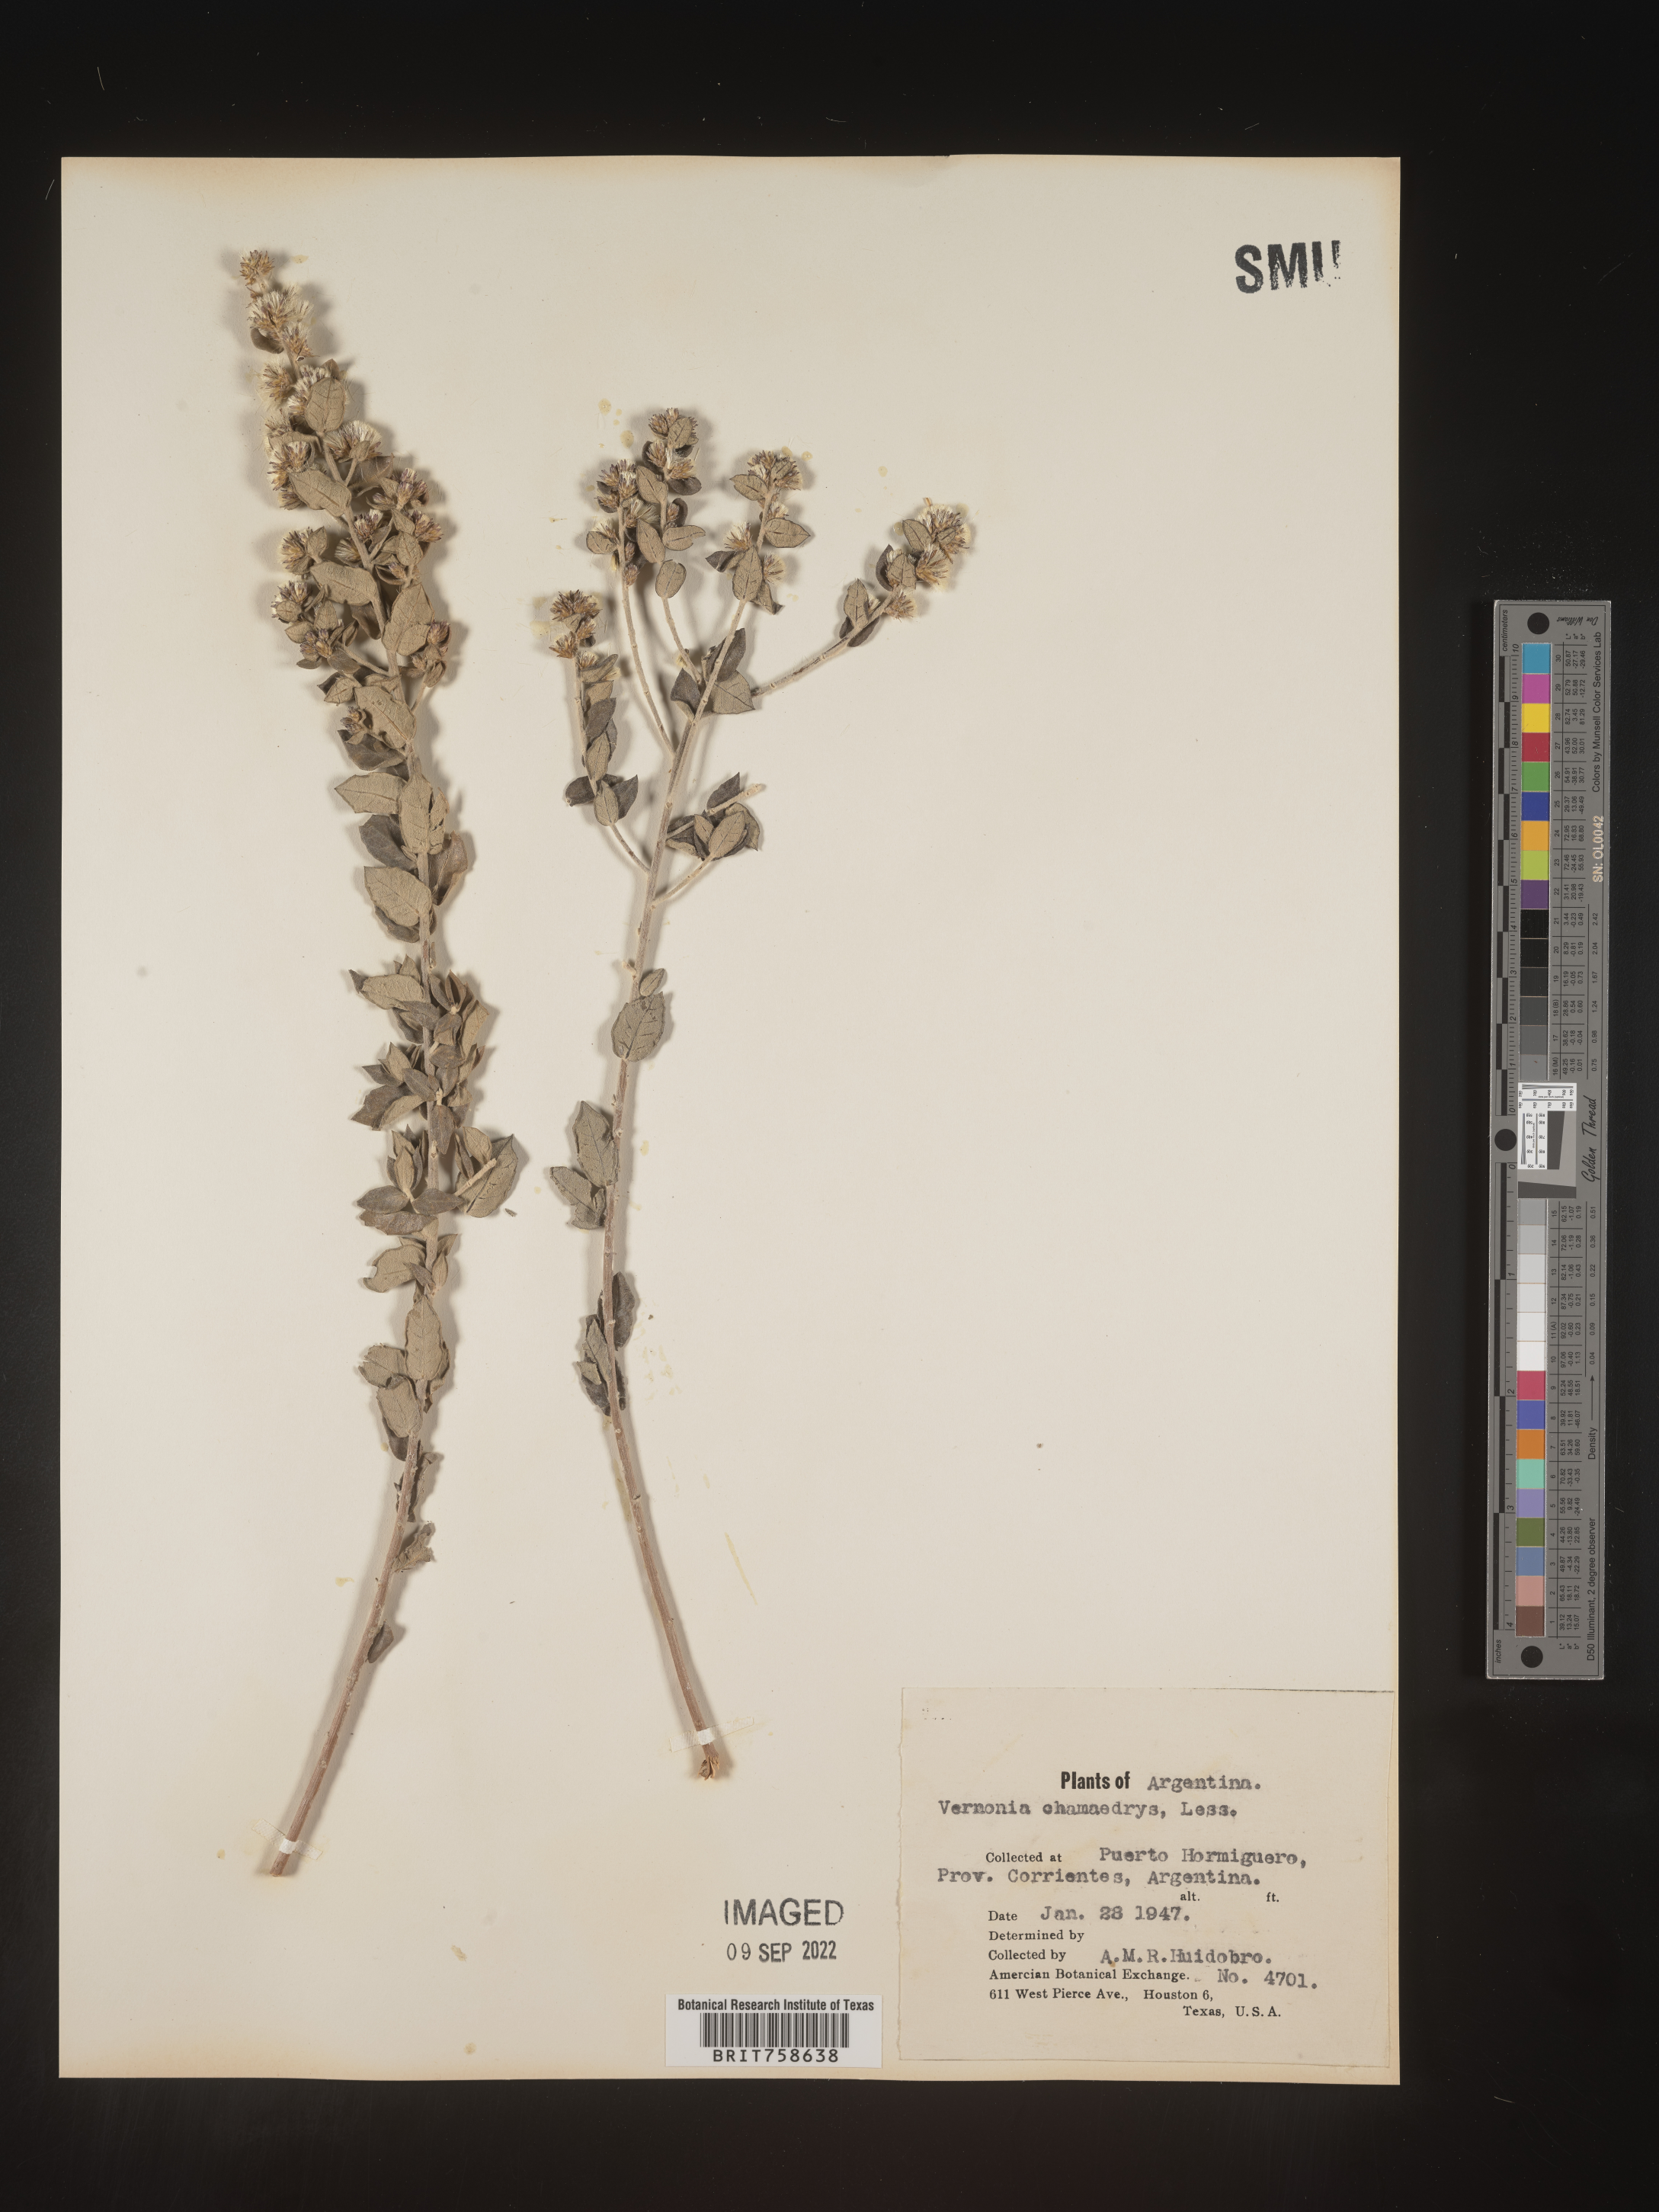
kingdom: Plantae
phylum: Tracheophyta
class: Magnoliopsida
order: Asterales
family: Asteraceae
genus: Vernonia
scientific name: Vernonia
